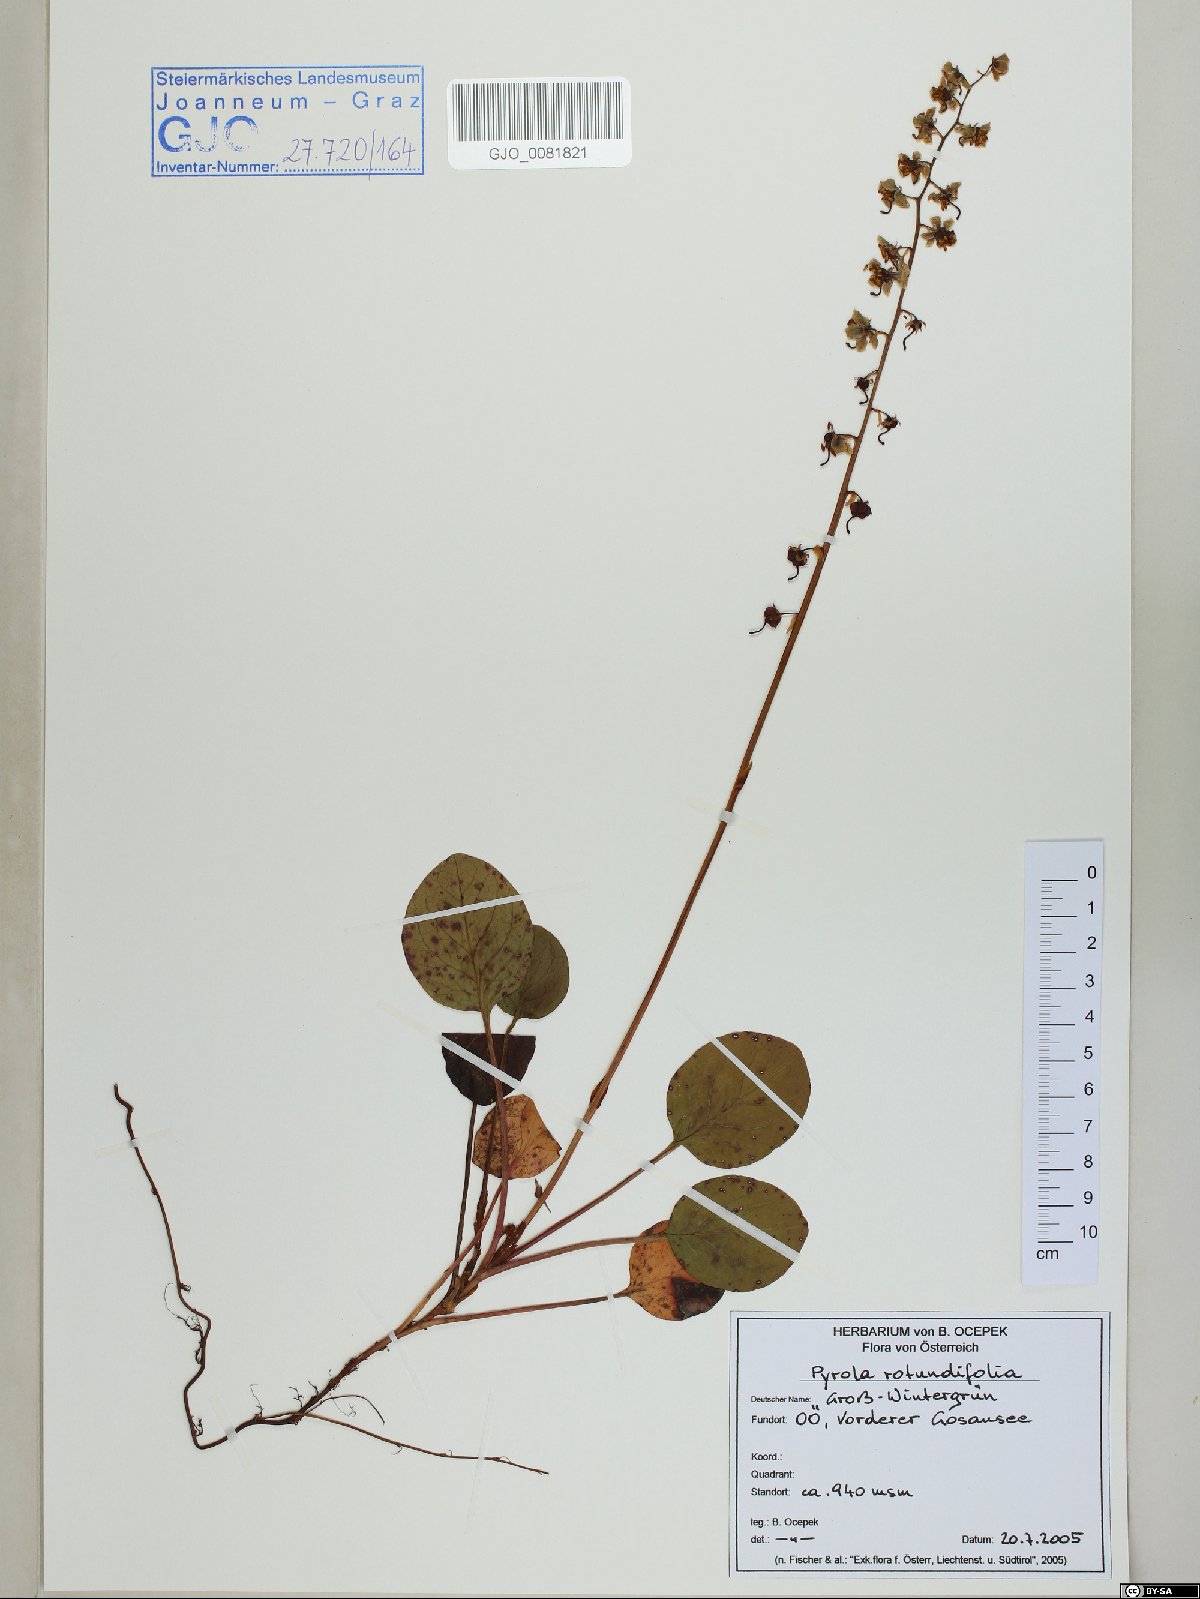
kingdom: Plantae
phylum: Tracheophyta
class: Magnoliopsida
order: Ericales
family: Ericaceae
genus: Pyrola
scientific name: Pyrola rotundifolia
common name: Round-leaved wintergreen
